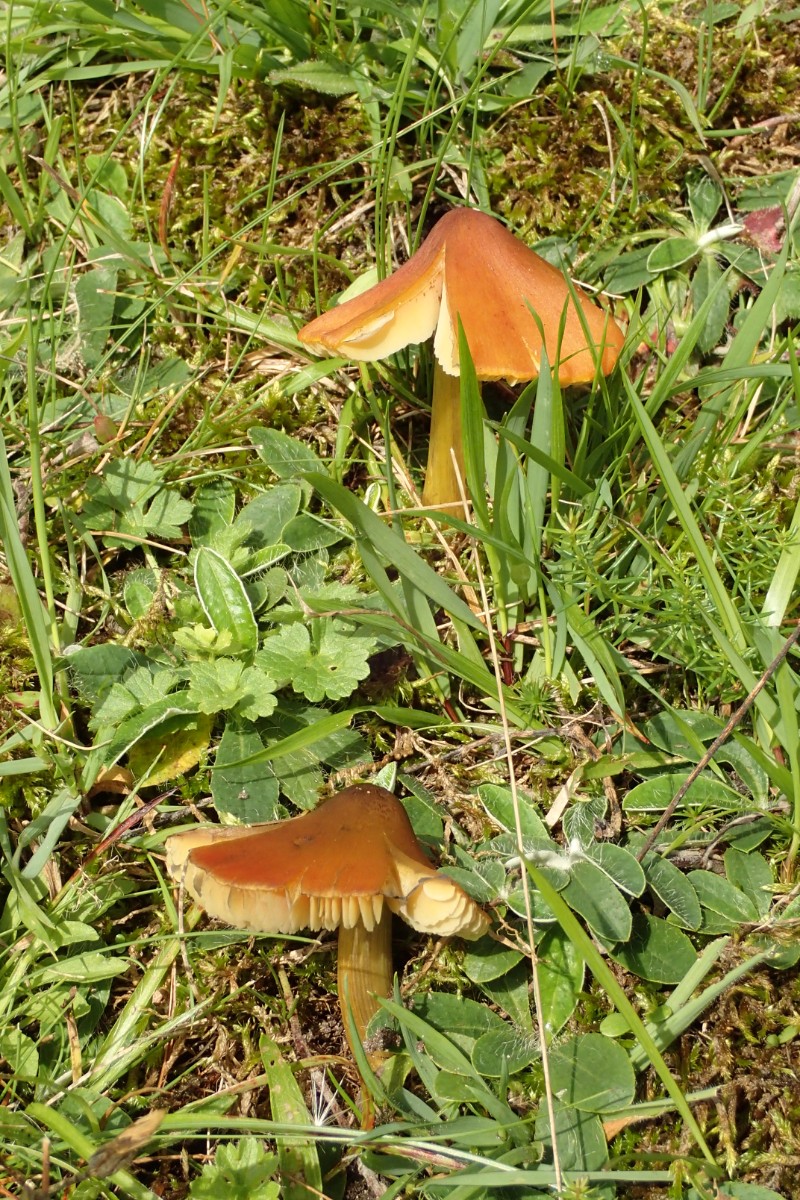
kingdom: Fungi
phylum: Basidiomycota
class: Agaricomycetes
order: Agaricales
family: Hygrophoraceae
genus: Hygrocybe
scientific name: Hygrocybe conica
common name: kegle-vokshat
